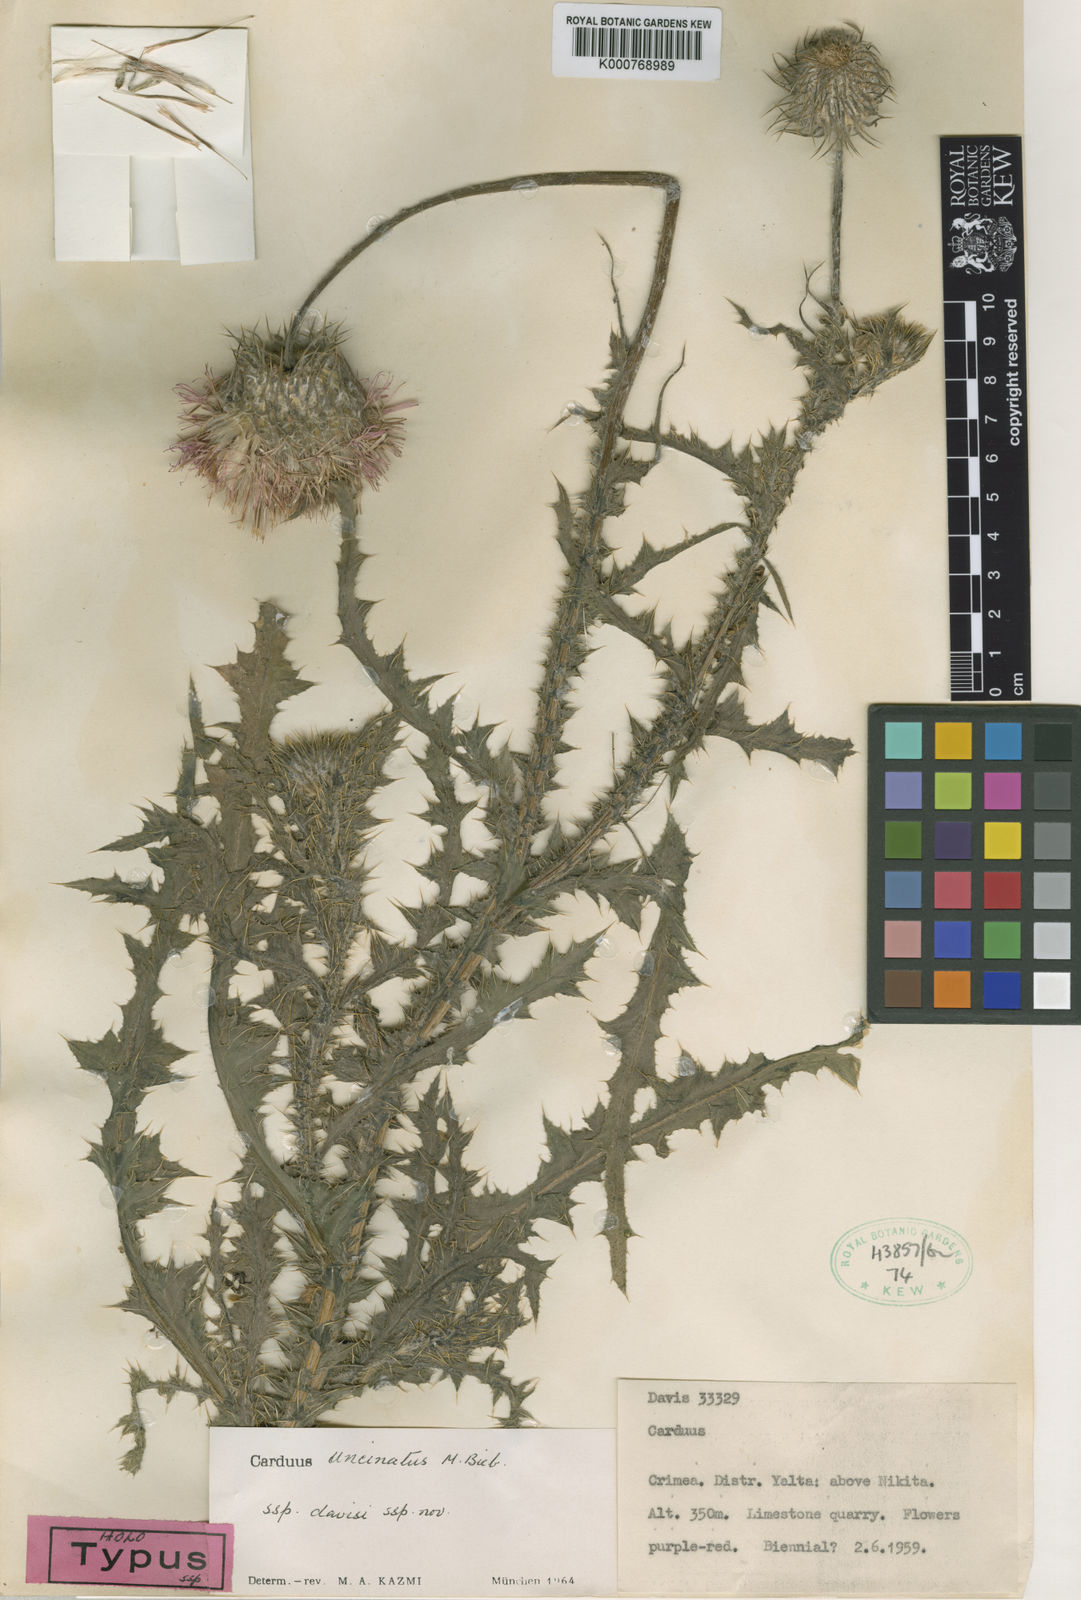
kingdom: Plantae
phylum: Tracheophyta
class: Magnoliopsida
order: Asterales
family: Asteraceae
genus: Carduus
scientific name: Carduus uncinatus
